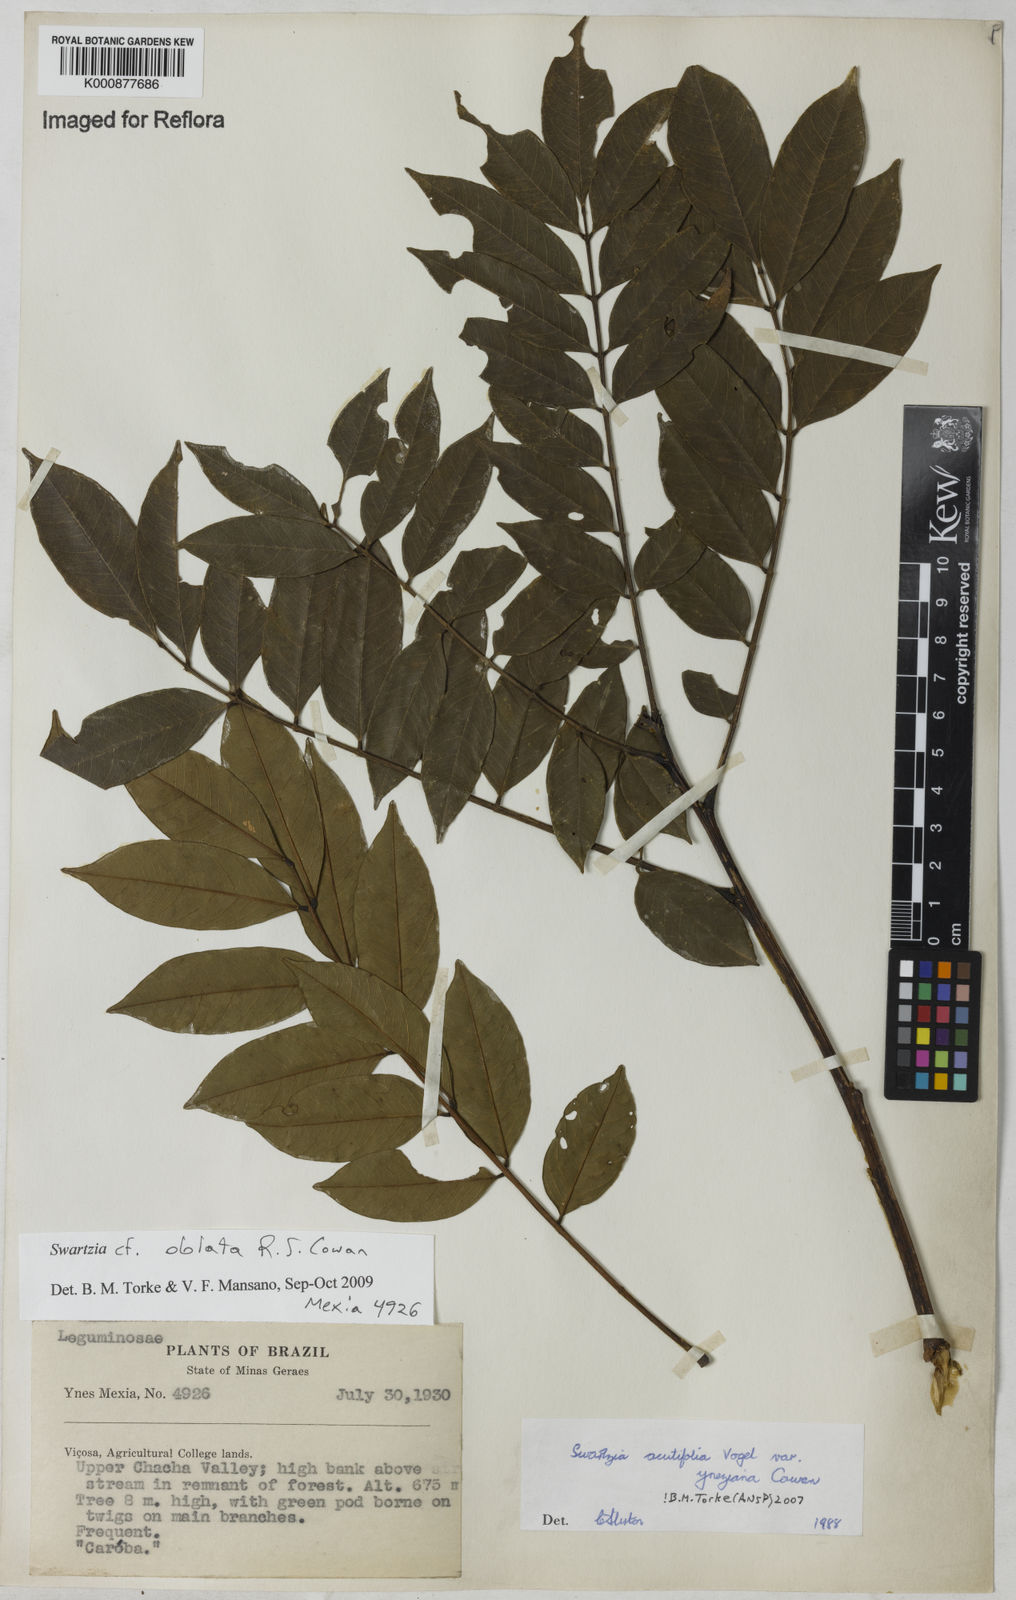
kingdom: Plantae
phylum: Tracheophyta
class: Magnoliopsida
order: Fabales
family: Fabaceae
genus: Swartzia
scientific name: Swartzia oblata
